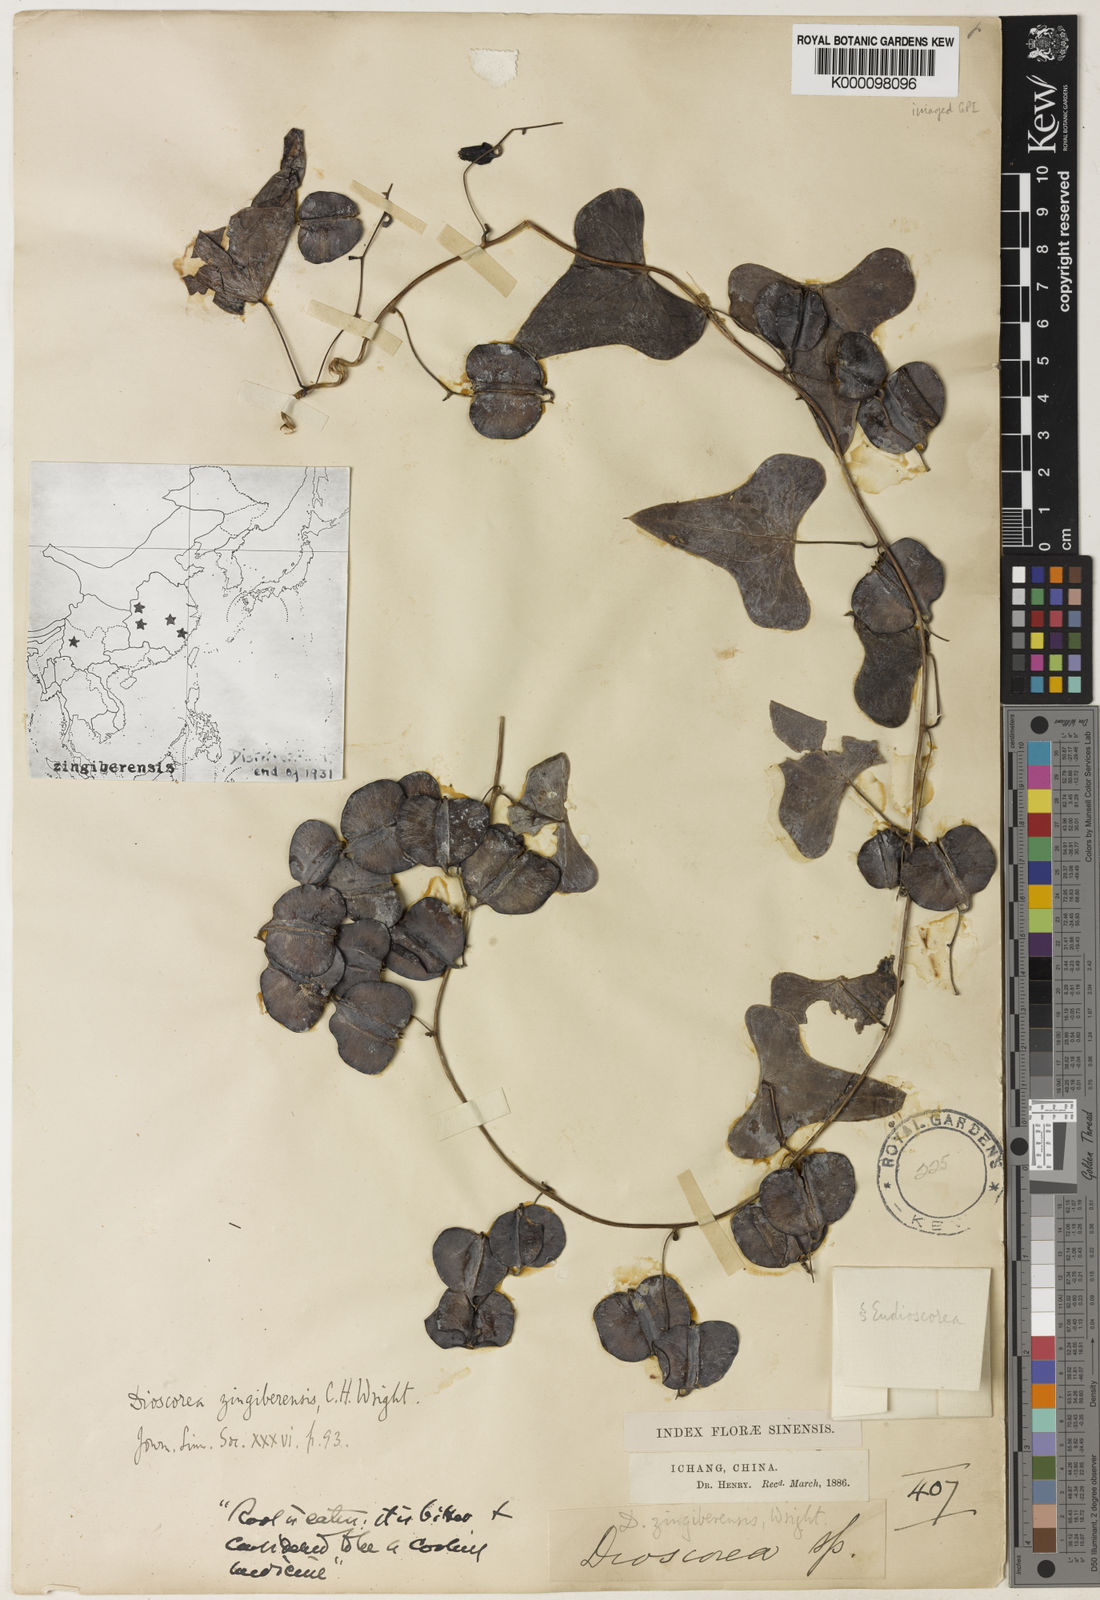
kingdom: Plantae
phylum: Tracheophyta
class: Liliopsida
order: Dioscoreales
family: Dioscoreaceae
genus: Dioscorea
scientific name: Dioscorea zingiberensis
